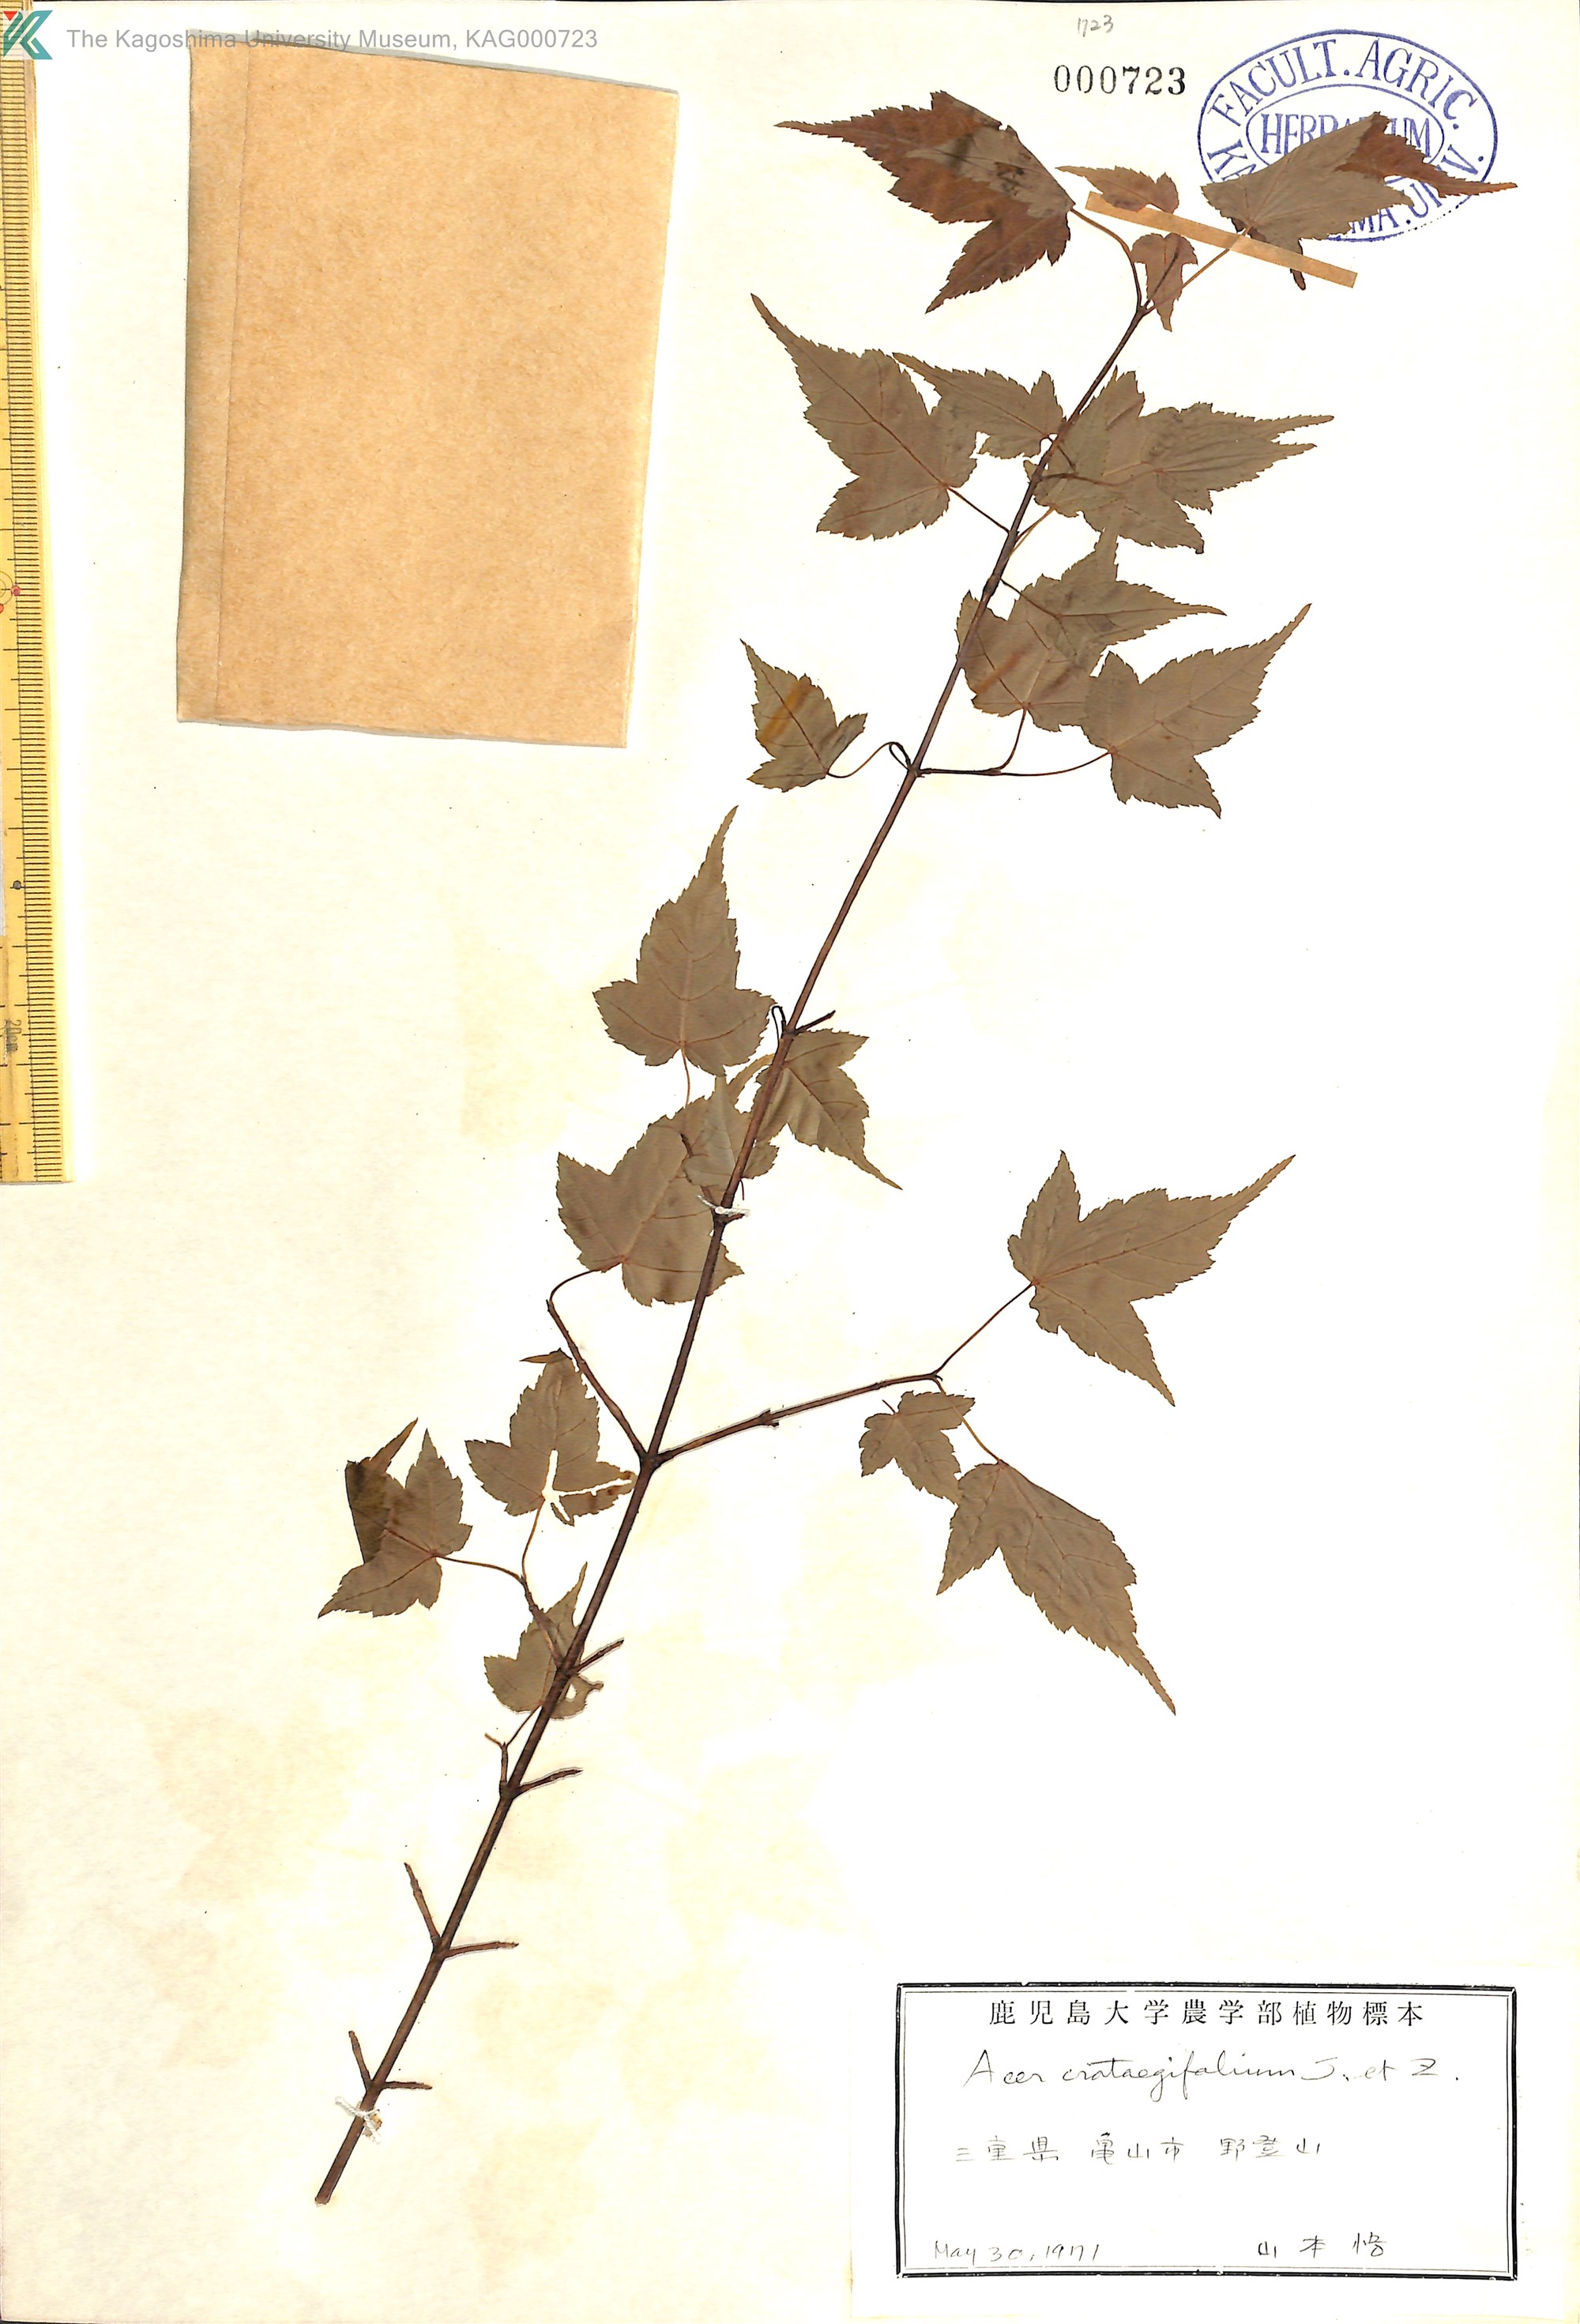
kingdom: Plantae
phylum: Tracheophyta
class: Magnoliopsida
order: Sapindales
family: Sapindaceae
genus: Acer
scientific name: Acer crataegifolium
